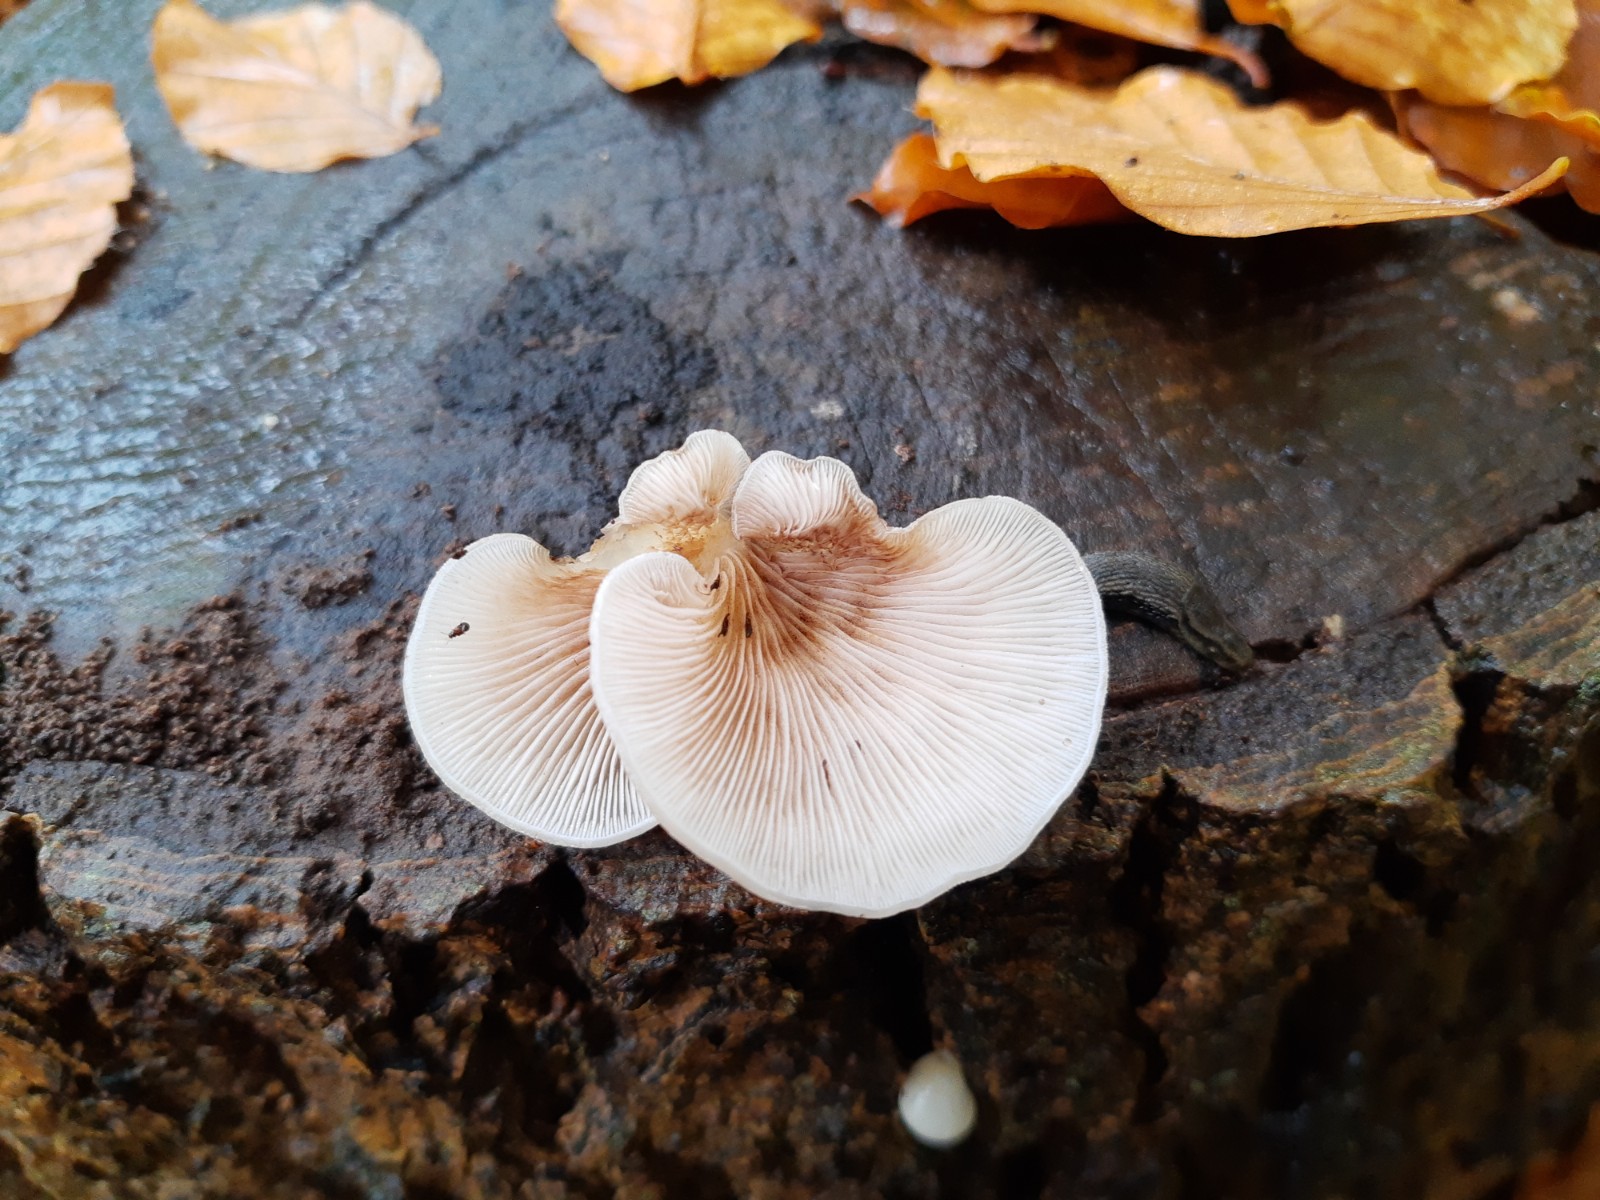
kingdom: Fungi
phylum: Basidiomycota
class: Agaricomycetes
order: Agaricales
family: Crepidotaceae
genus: Crepidotus
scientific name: Crepidotus mollis
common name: blød muslingesvamp
